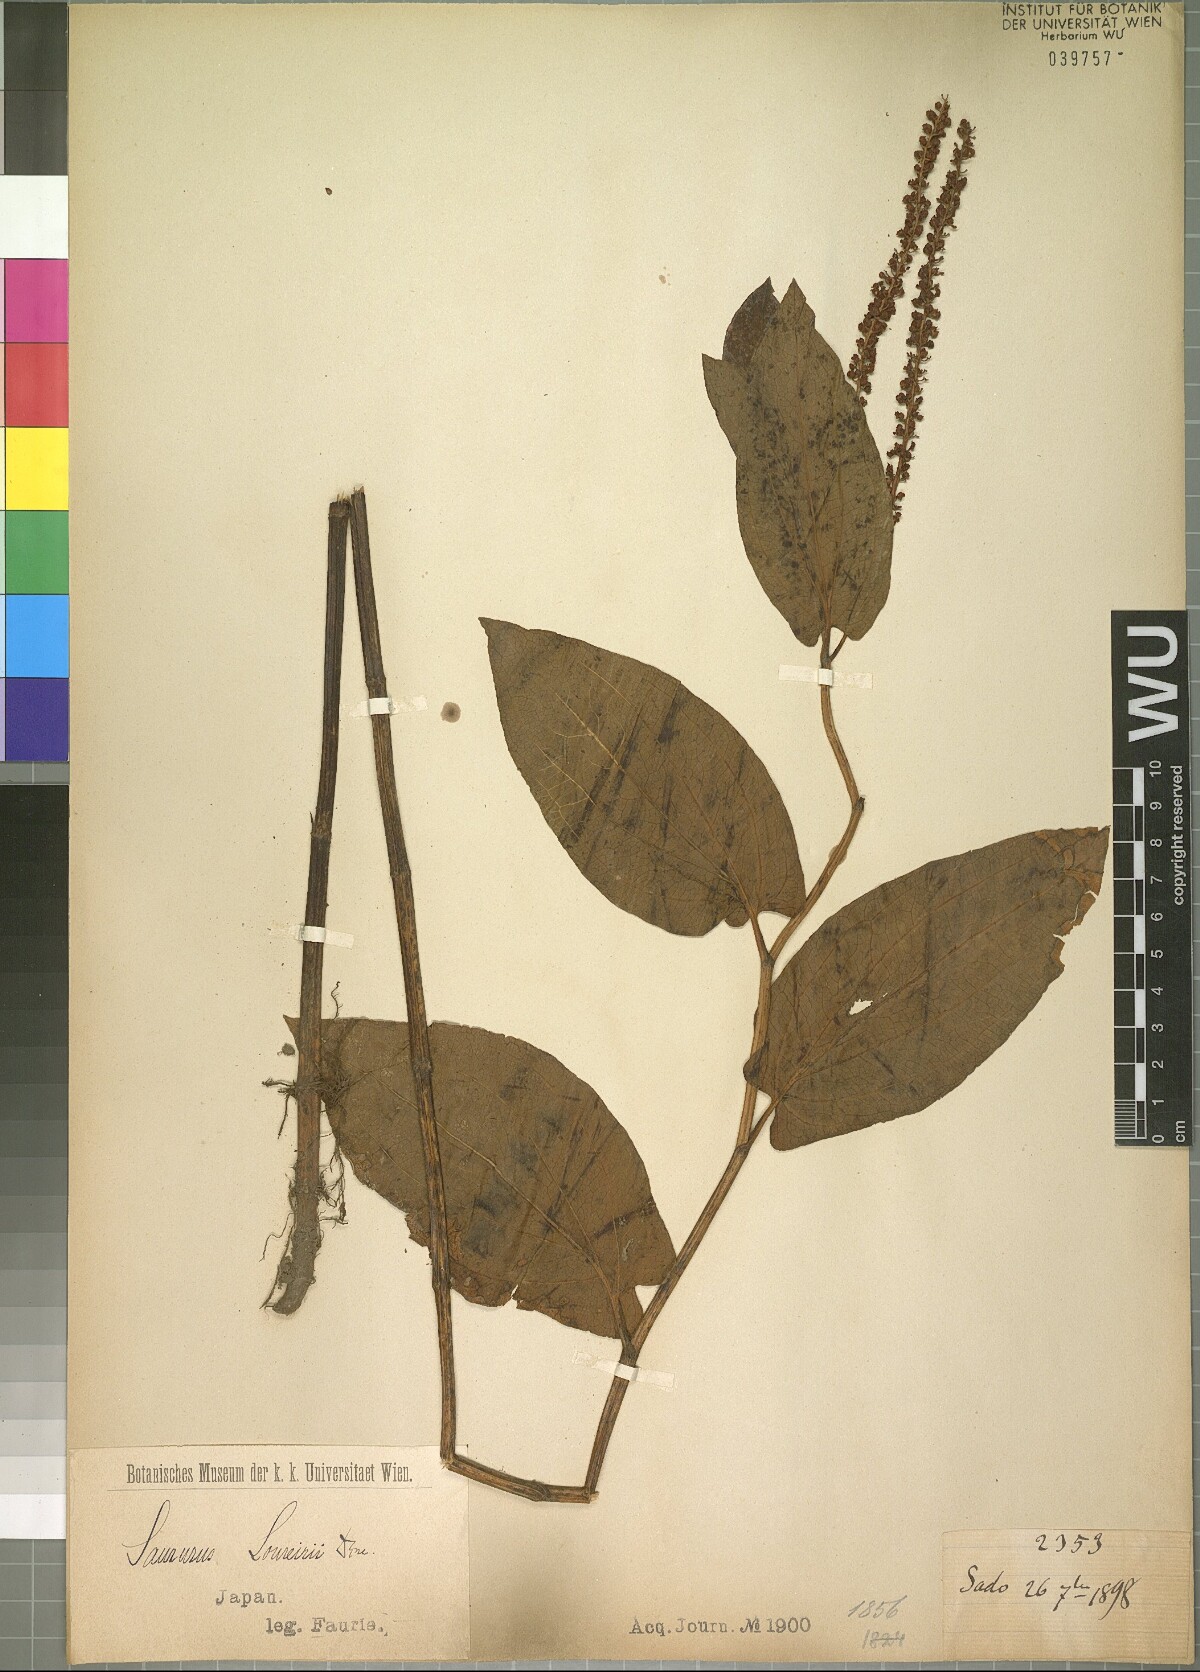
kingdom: Plantae
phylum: Tracheophyta
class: Magnoliopsida
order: Piperales
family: Saururaceae
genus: Saururus
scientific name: Saururus chinensis
